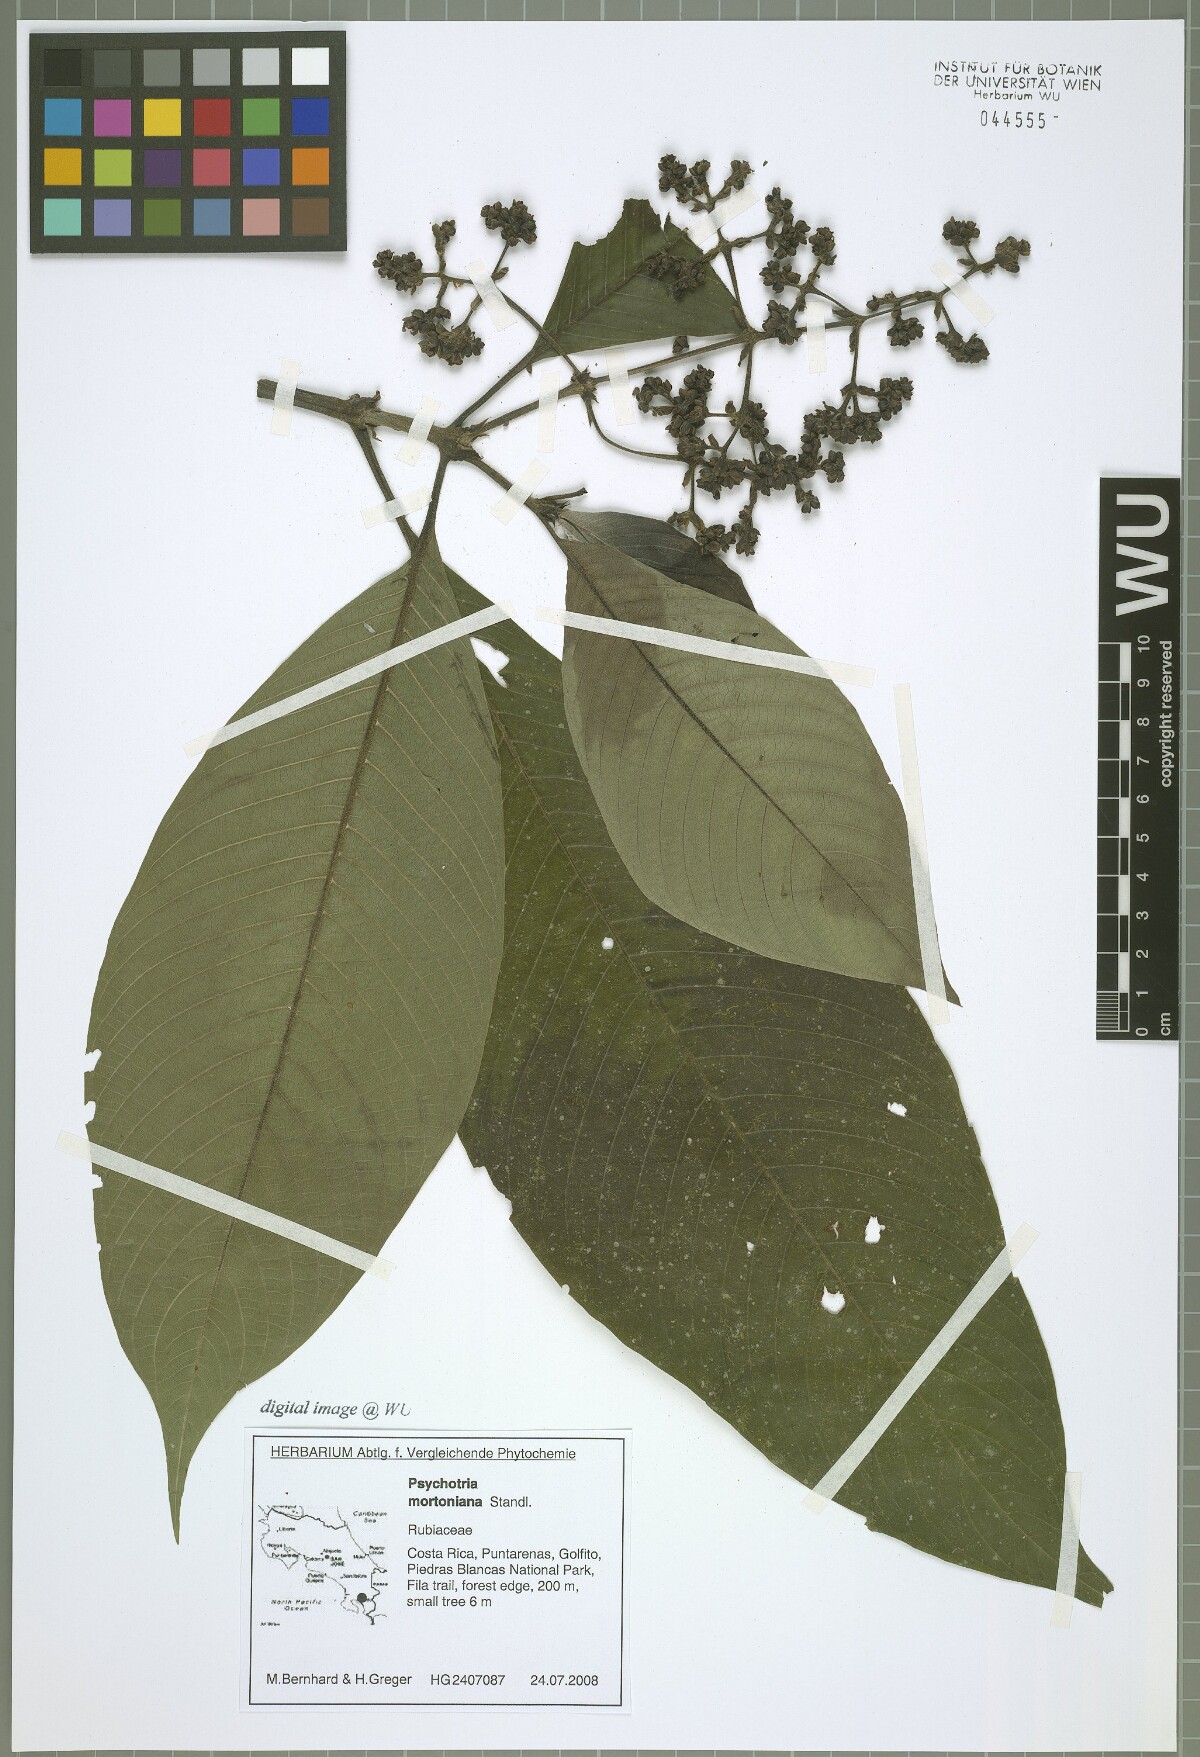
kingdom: Plantae
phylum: Tracheophyta
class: Magnoliopsida
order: Gentianales
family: Rubiaceae
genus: Palicourea
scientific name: Palicourea mortoniana
